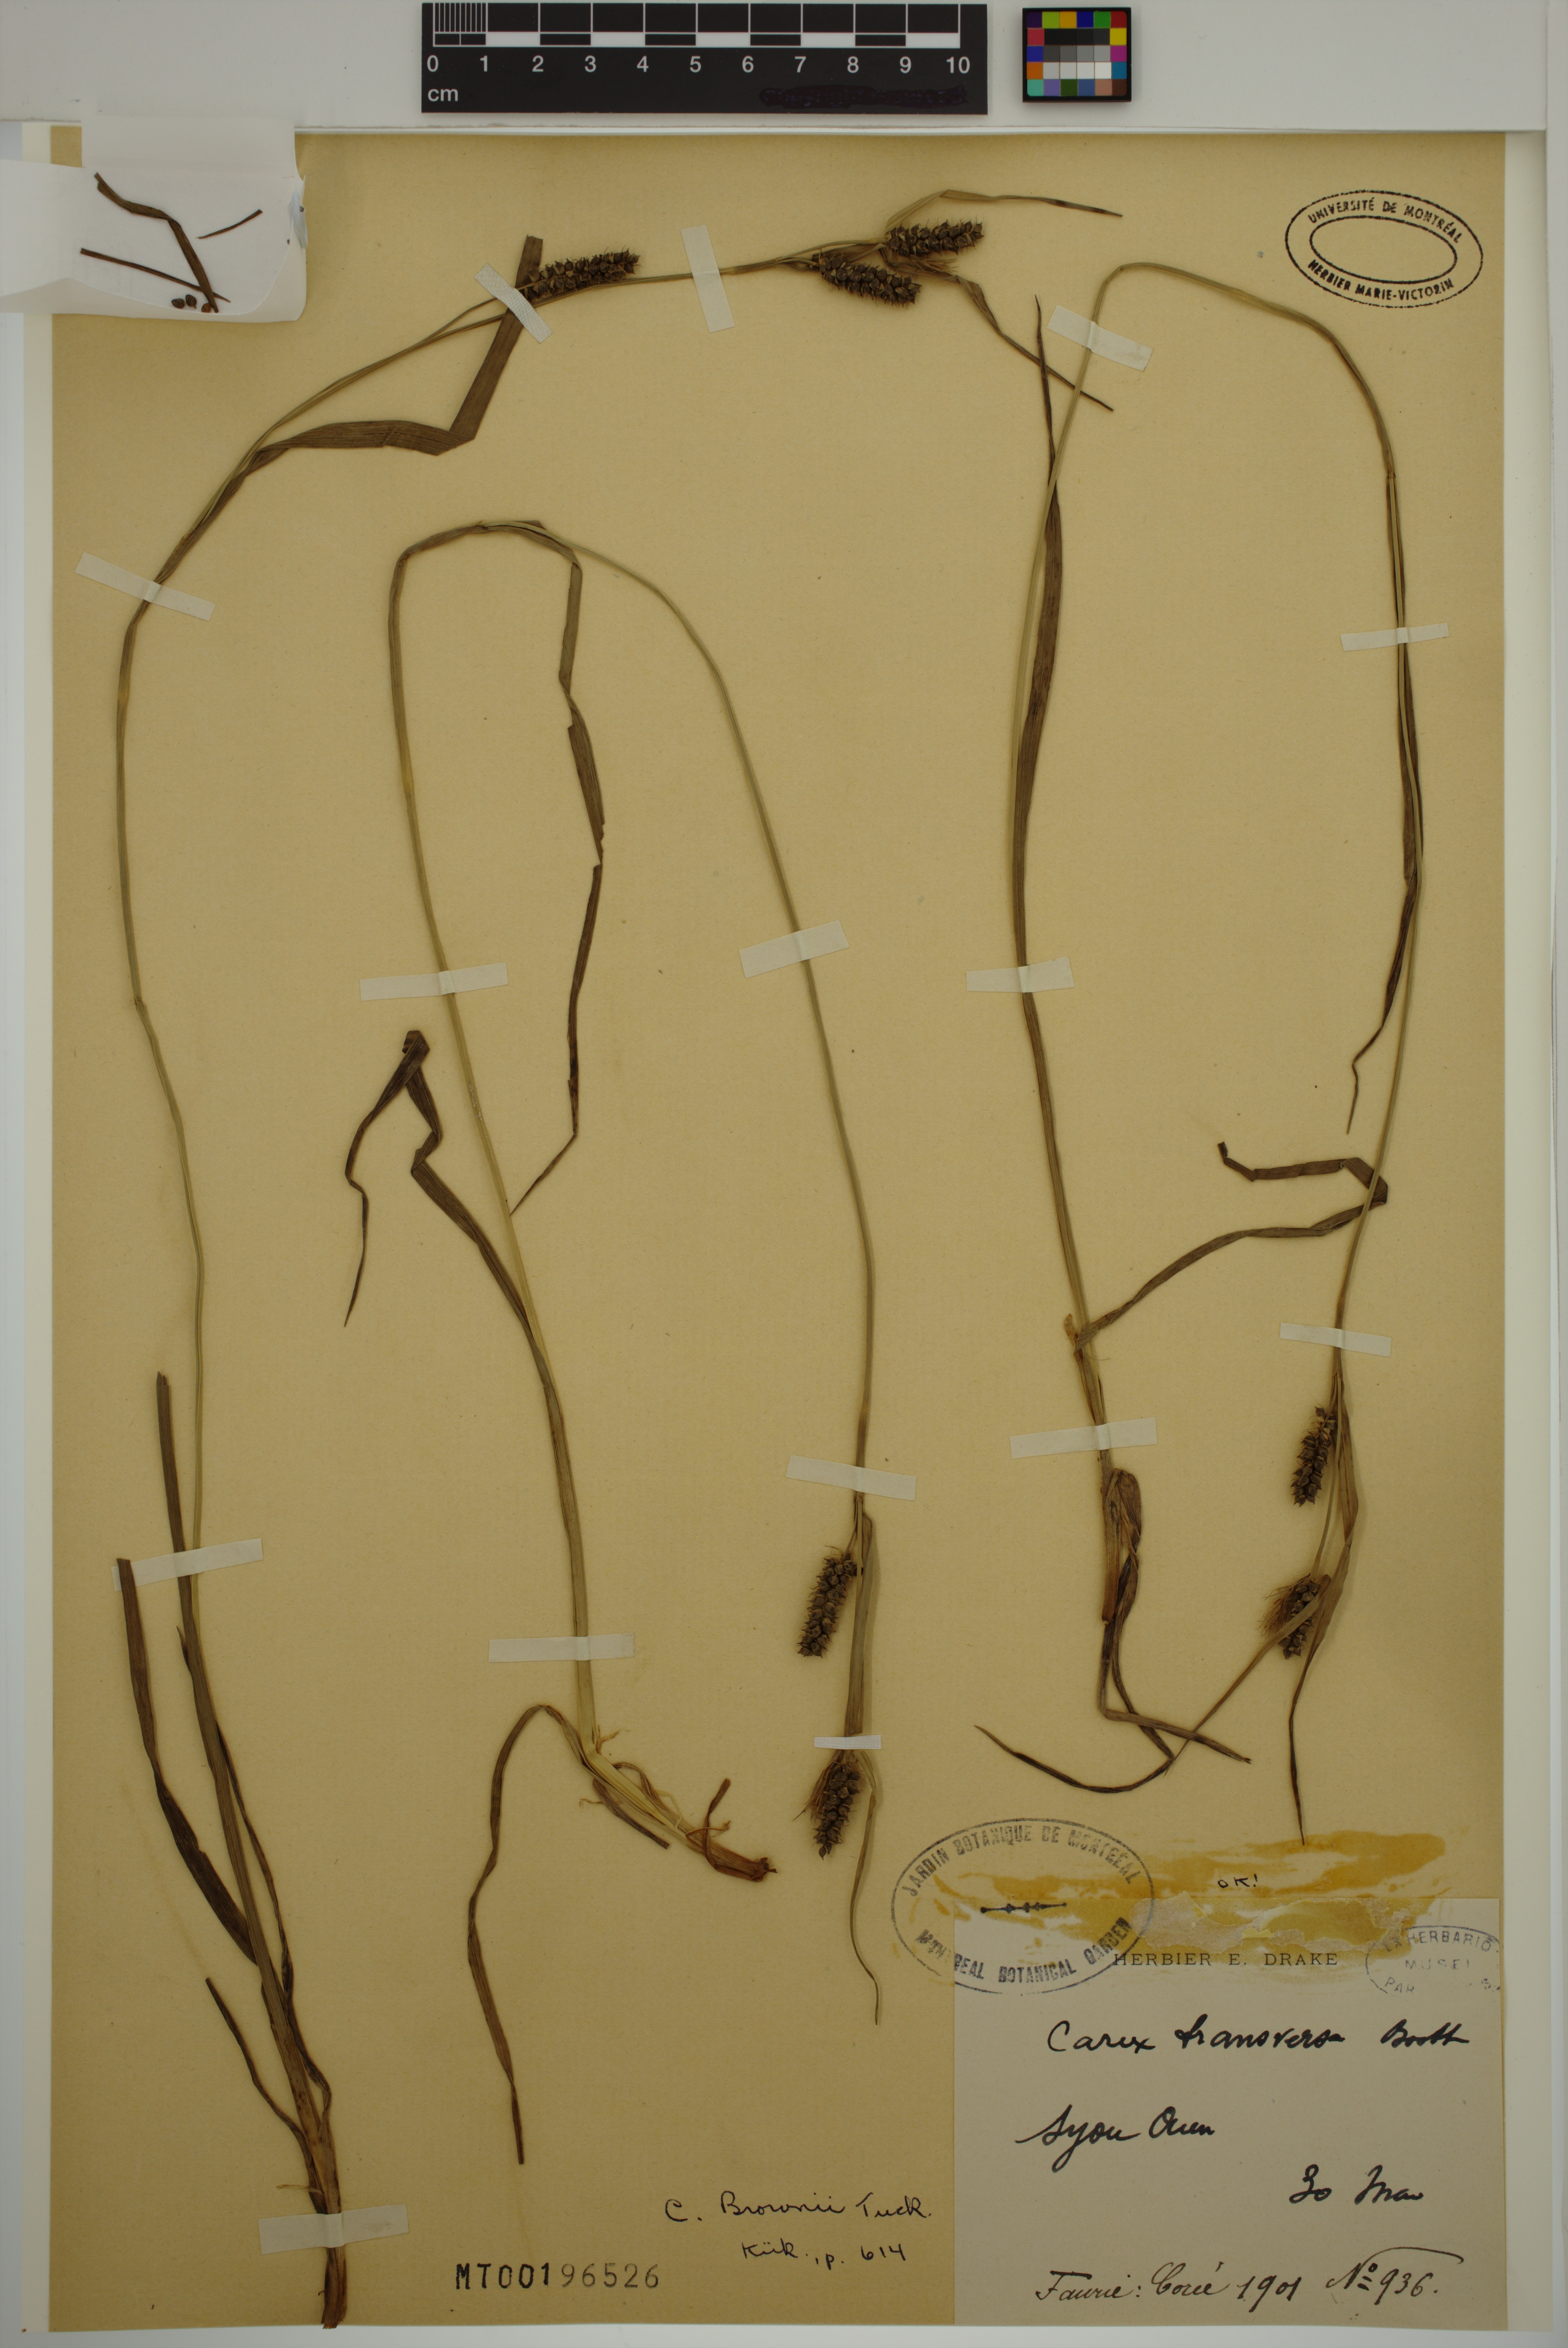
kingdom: Plantae
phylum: Tracheophyta
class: Liliopsida
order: Poales
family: Cyperaceae
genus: Carex
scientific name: Carex brownii
